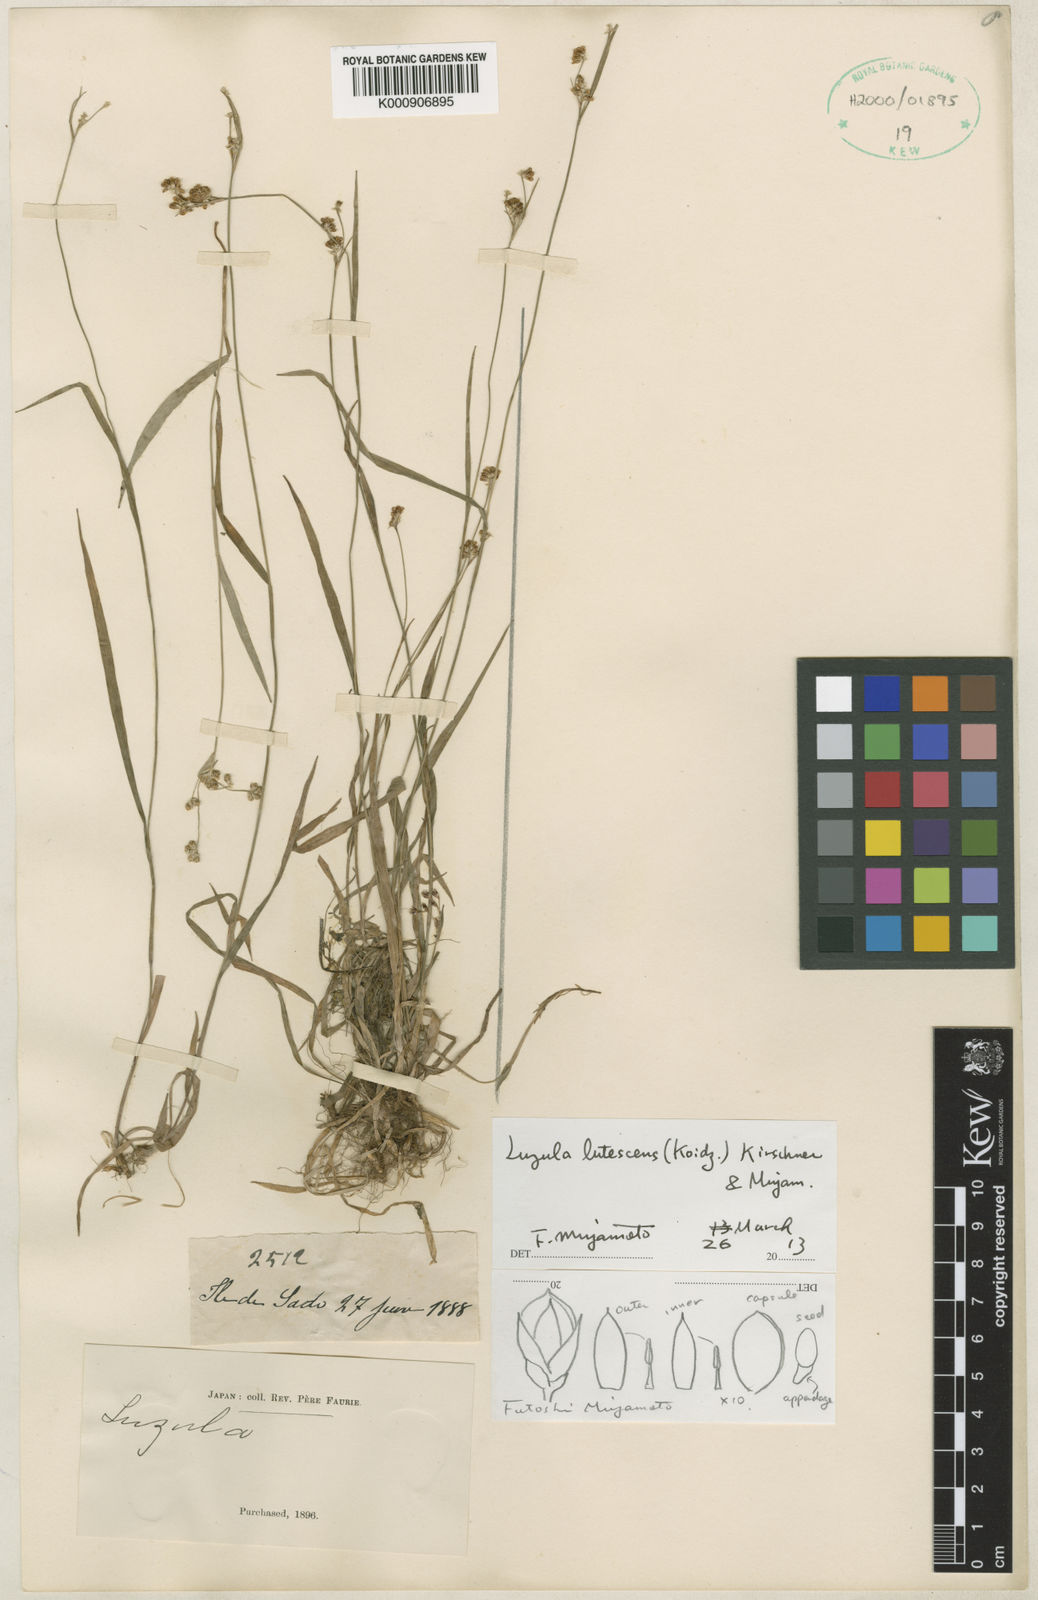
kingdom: Plantae
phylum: Tracheophyta
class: Liliopsida
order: Poales
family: Juncaceae
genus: Luzula
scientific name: Luzula campestris
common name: Field wood-rush
